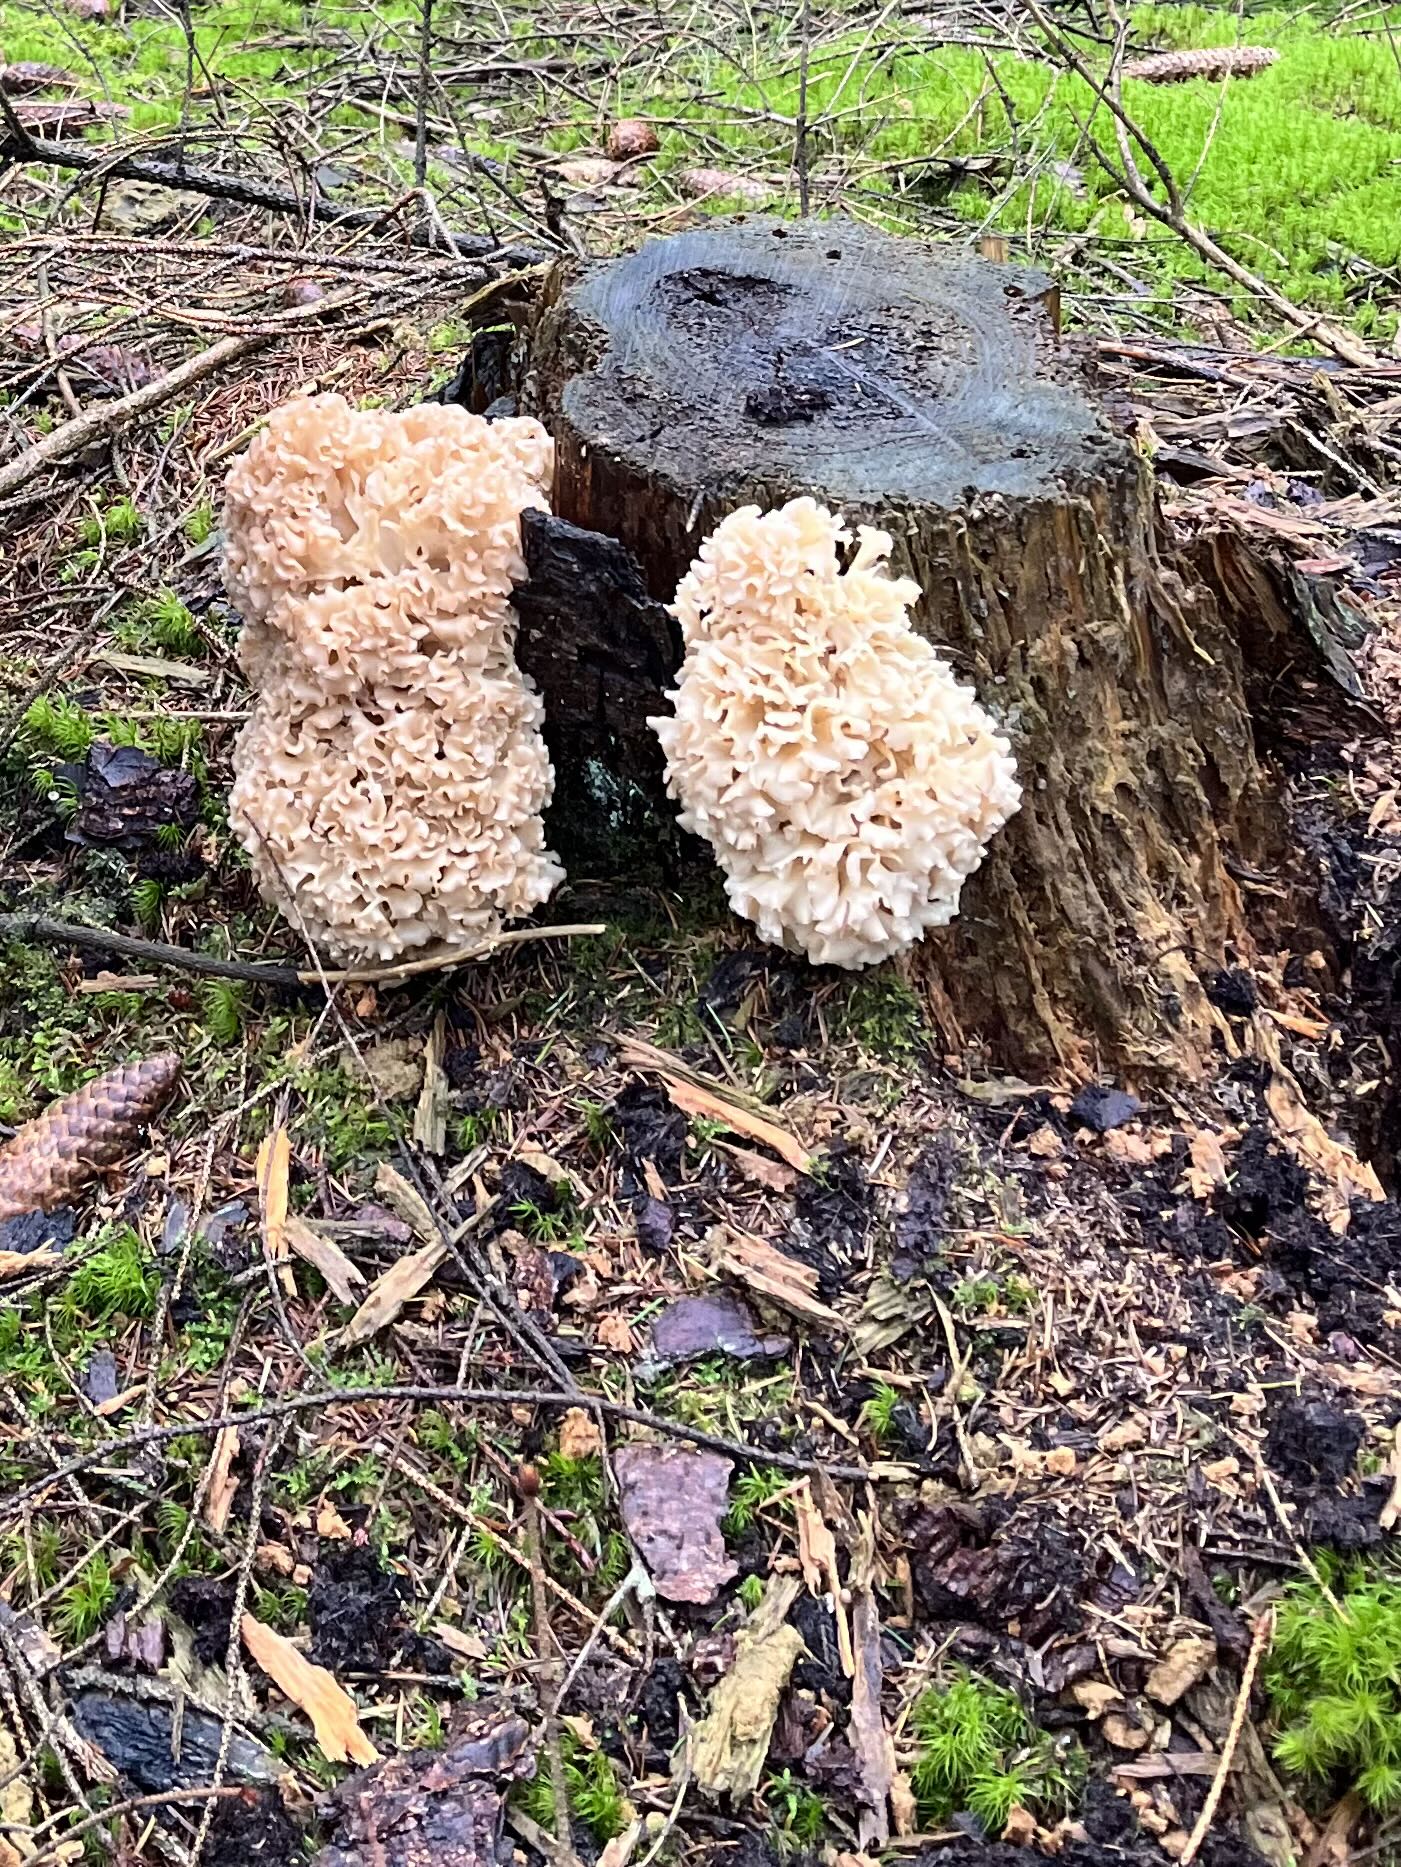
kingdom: Fungi
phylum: Basidiomycota
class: Agaricomycetes
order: Polyporales
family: Sparassidaceae
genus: Sparassis
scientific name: Sparassis crispa
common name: kruset blomkålssvamp
